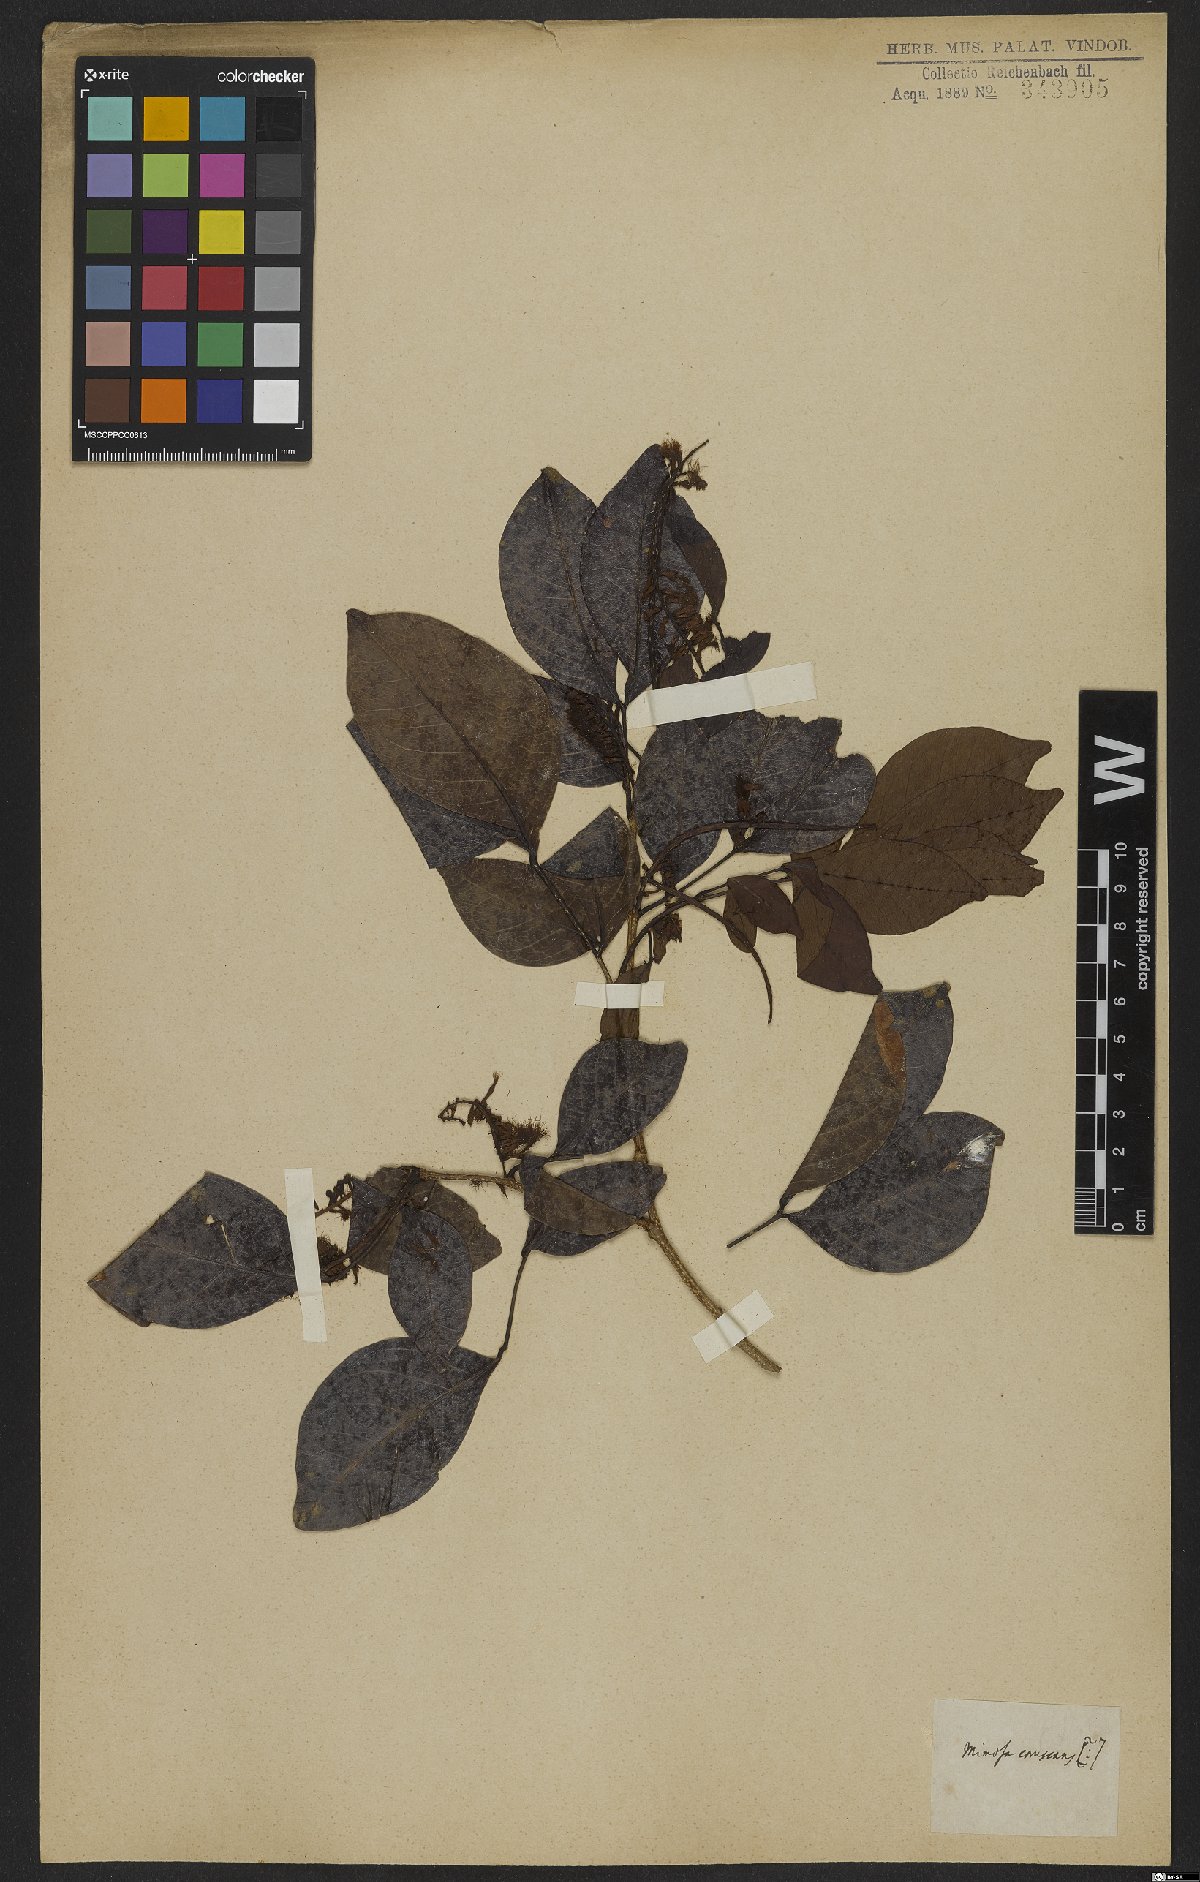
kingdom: Plantae
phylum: Tracheophyta
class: Magnoliopsida
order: Fabales
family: Fabaceae
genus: Inga
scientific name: Inga coruscans
